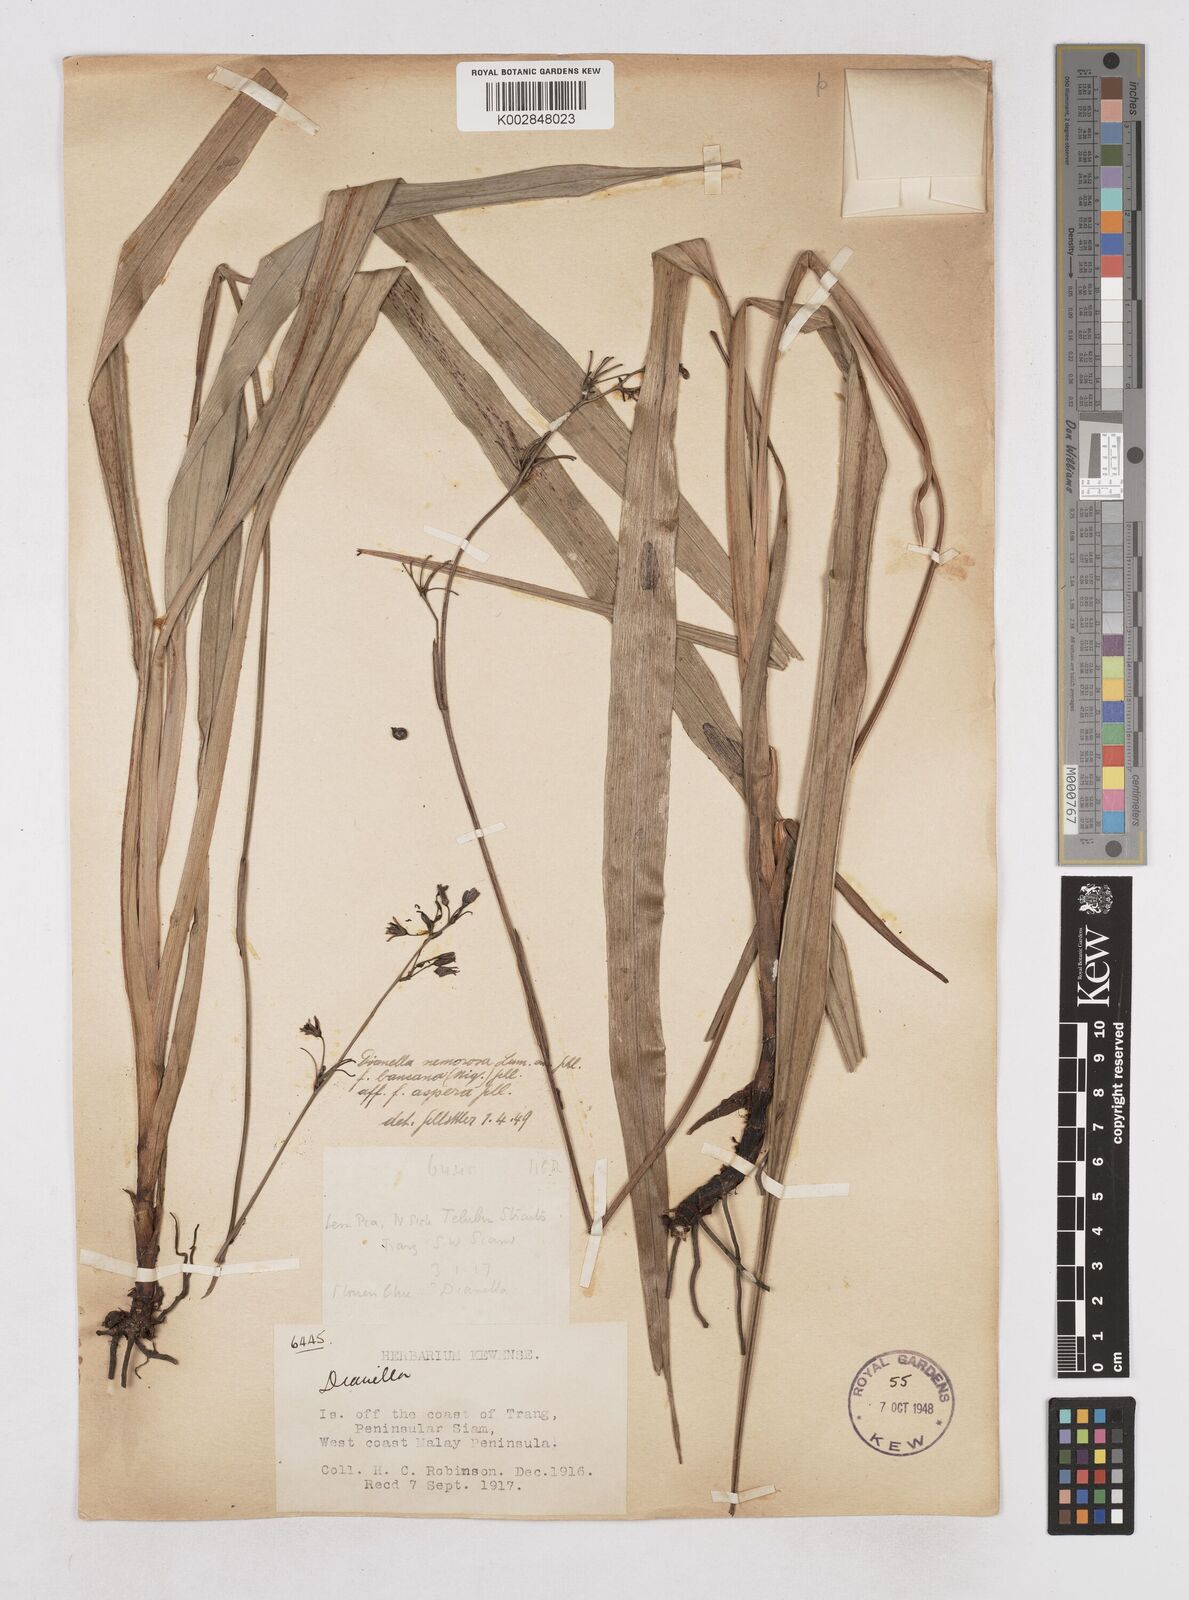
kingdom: Plantae
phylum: Tracheophyta
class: Liliopsida
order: Asparagales
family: Asphodelaceae
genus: Dianella
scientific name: Dianella ensifolia
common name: New zealand lilyplant
